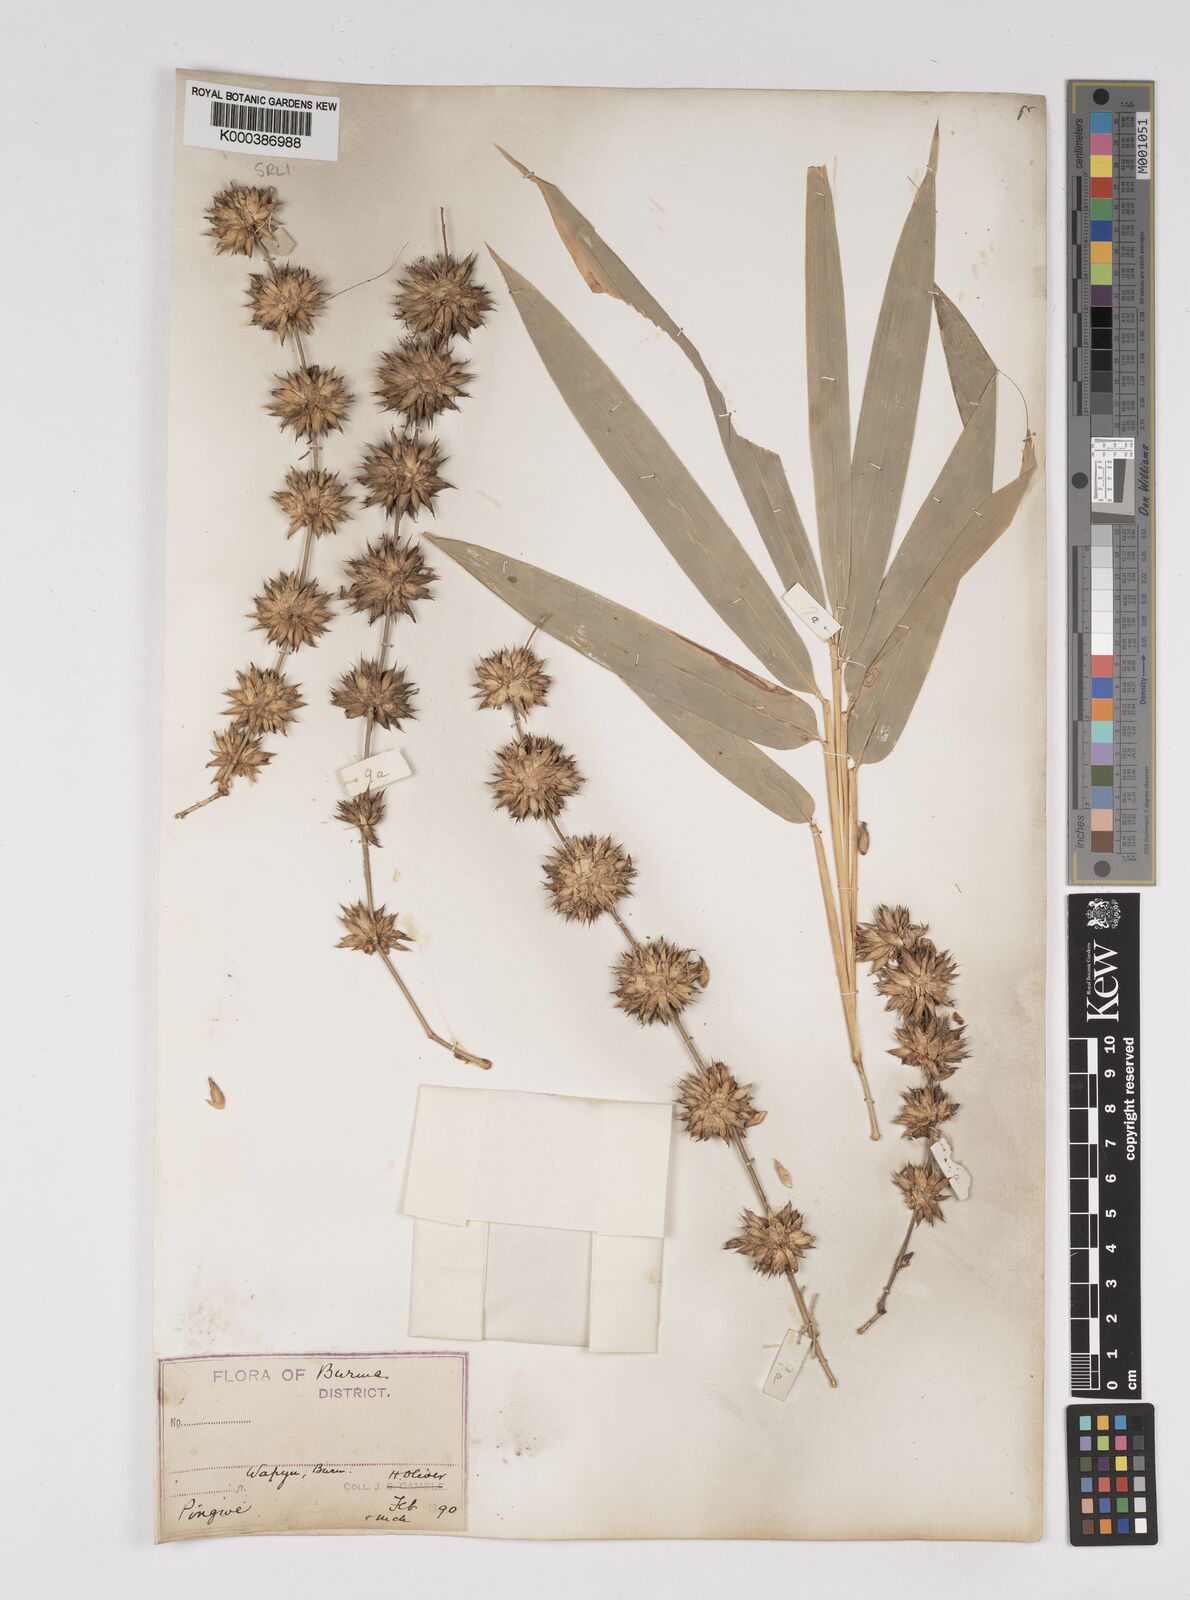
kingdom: Plantae
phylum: Tracheophyta
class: Liliopsida
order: Poales
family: Poaceae
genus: Dendrocalamus
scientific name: Dendrocalamus membranaceus
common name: White bamboo
